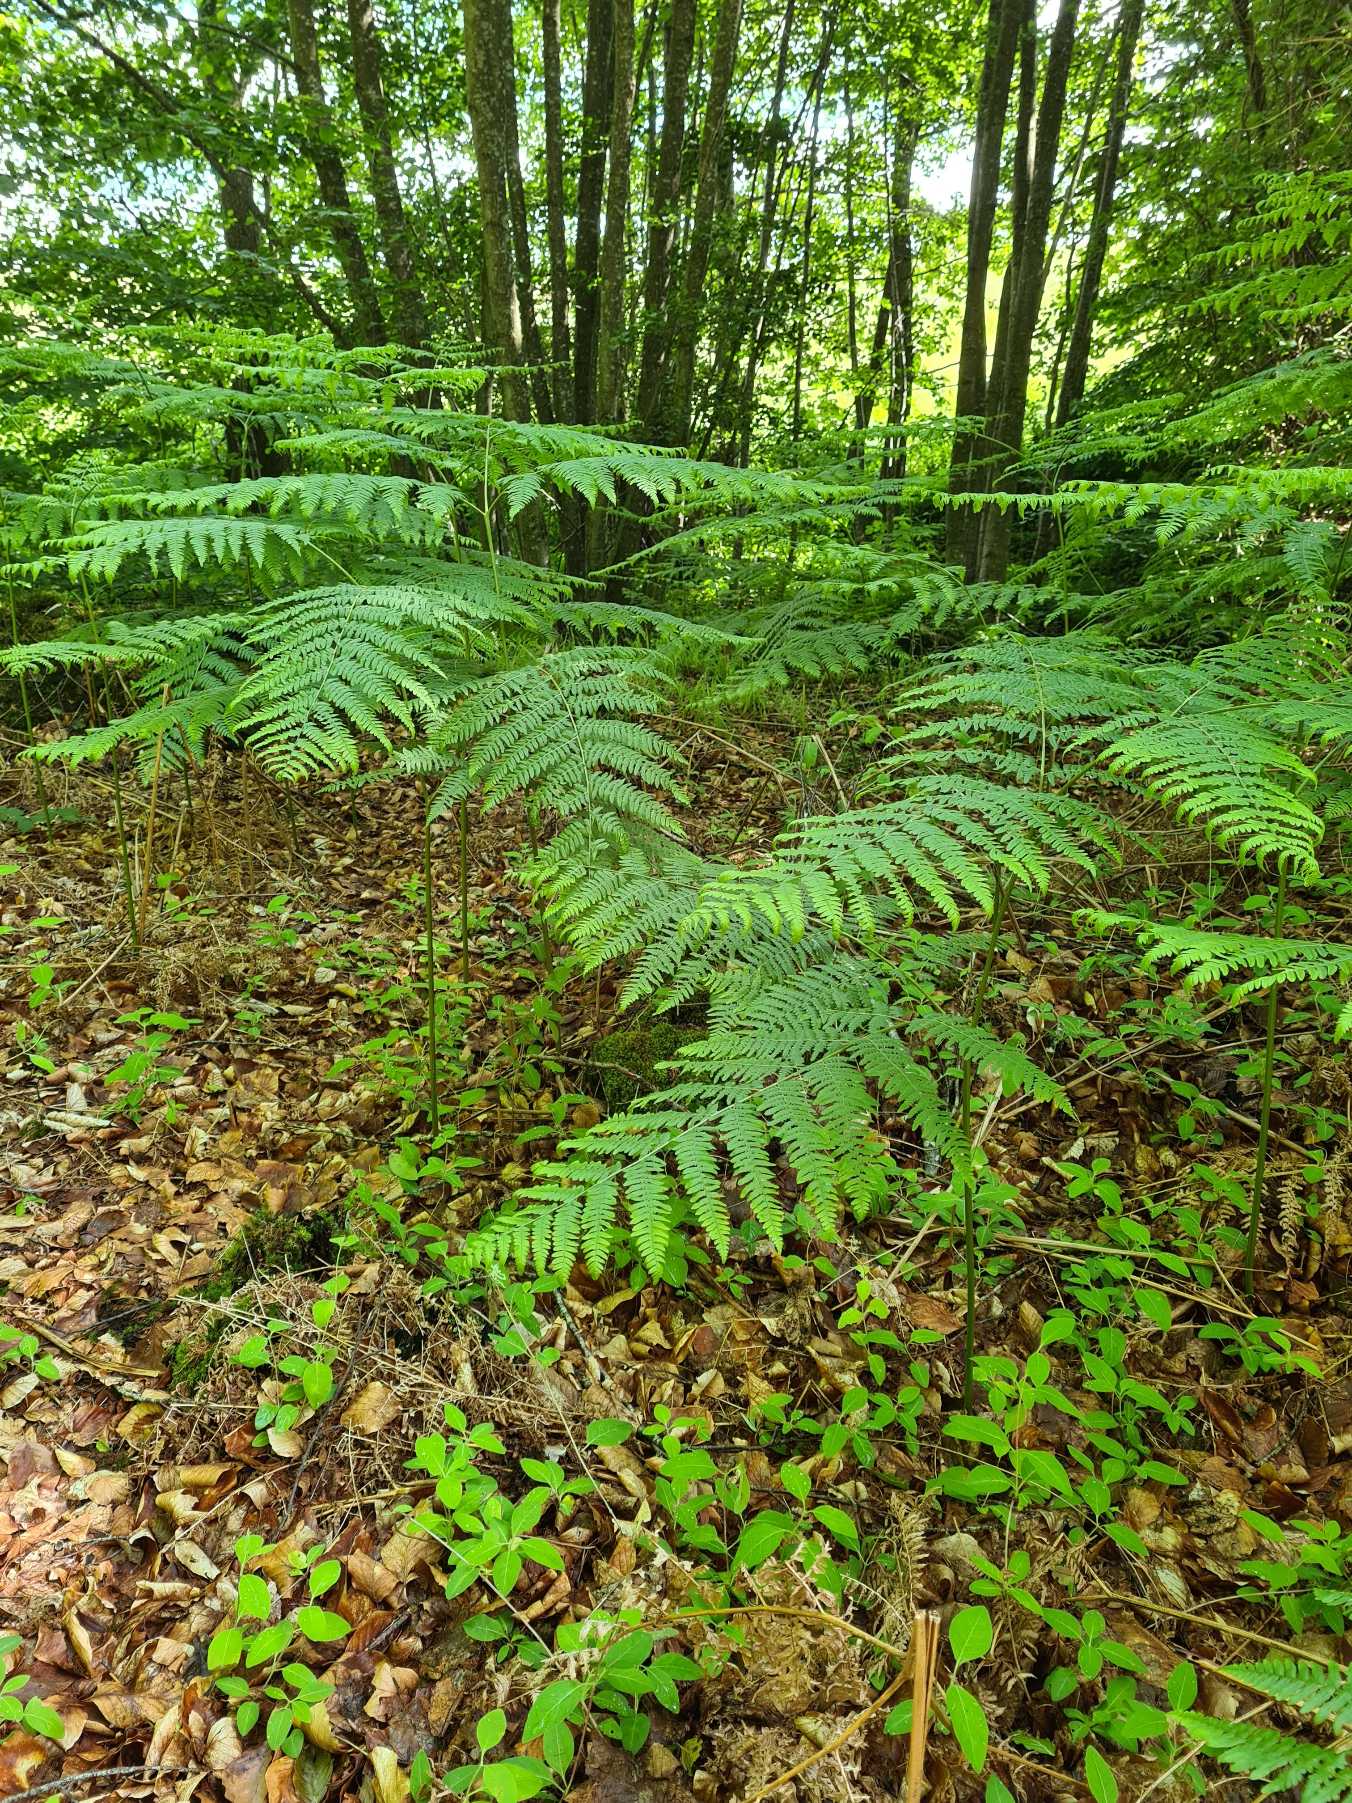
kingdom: Plantae
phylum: Tracheophyta
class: Polypodiopsida
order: Polypodiales
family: Dennstaedtiaceae
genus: Pteridium
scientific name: Pteridium aquilinum
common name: Ørnebregne
